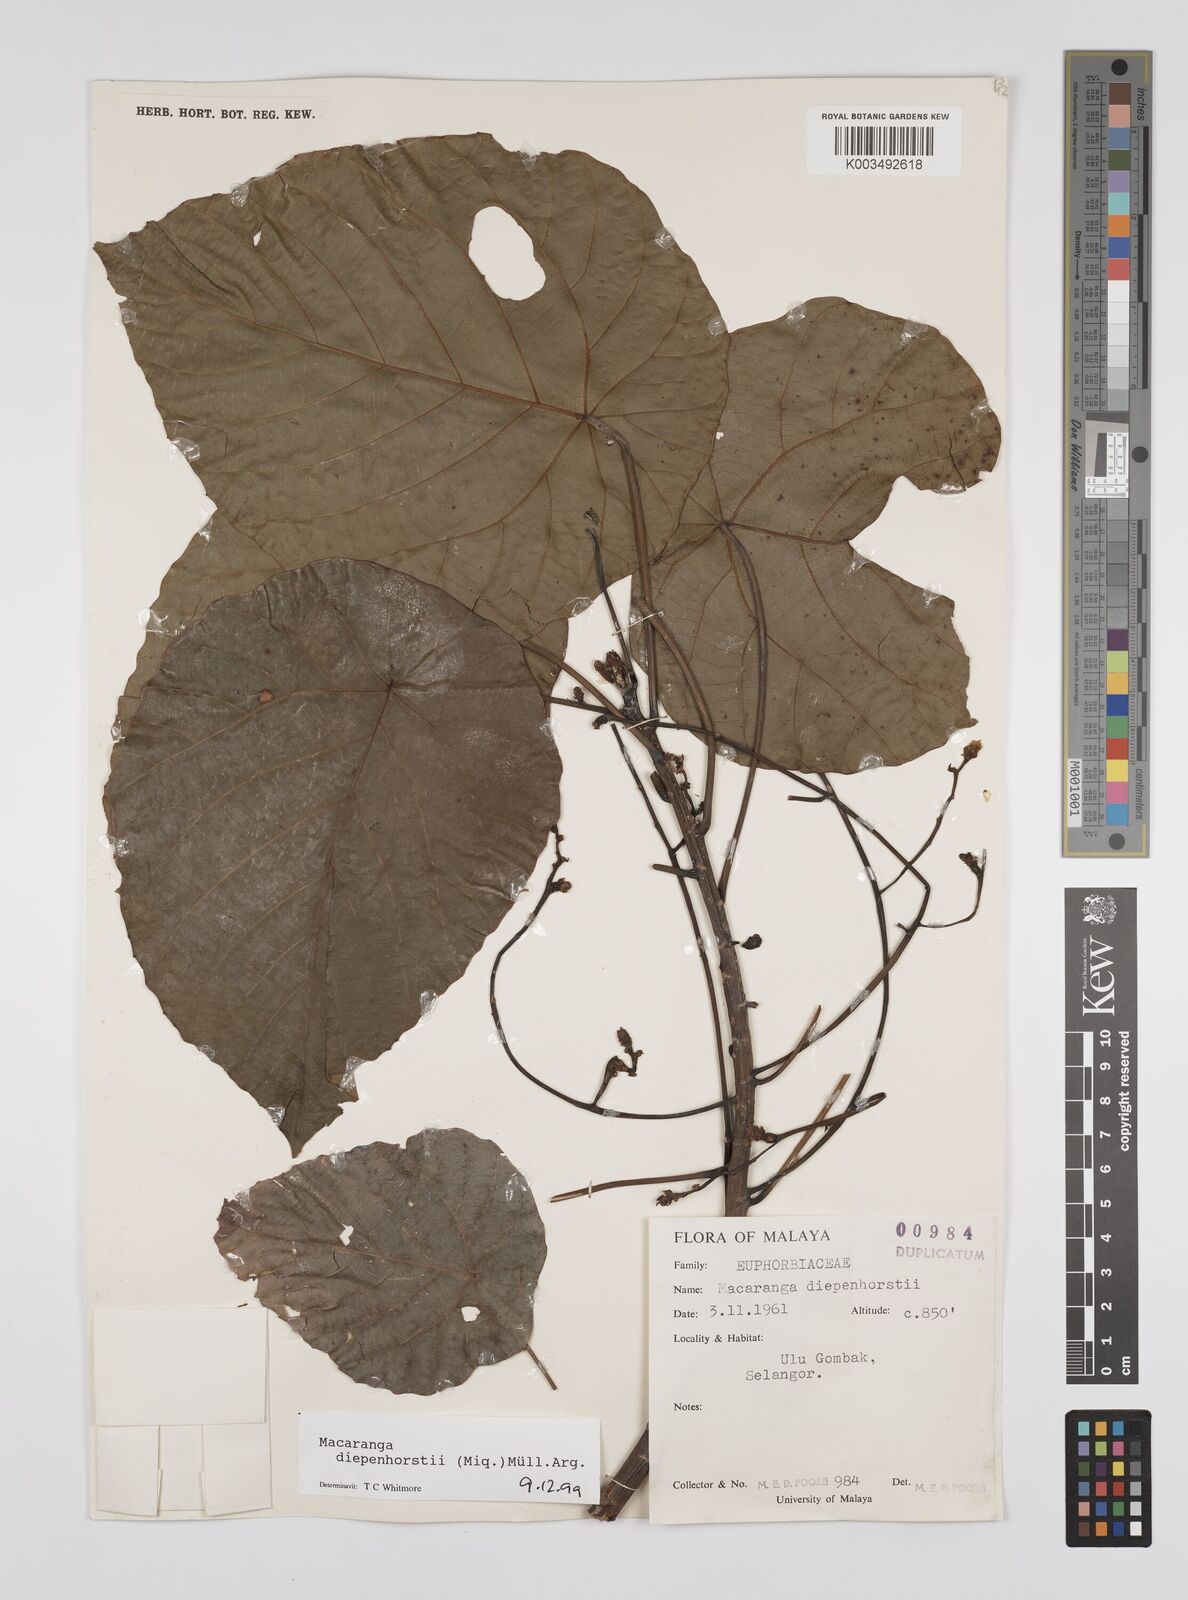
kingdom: Plantae
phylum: Tracheophyta
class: Magnoliopsida
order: Malpighiales
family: Euphorbiaceae
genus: Macaranga
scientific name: Macaranga diepenhorstii
